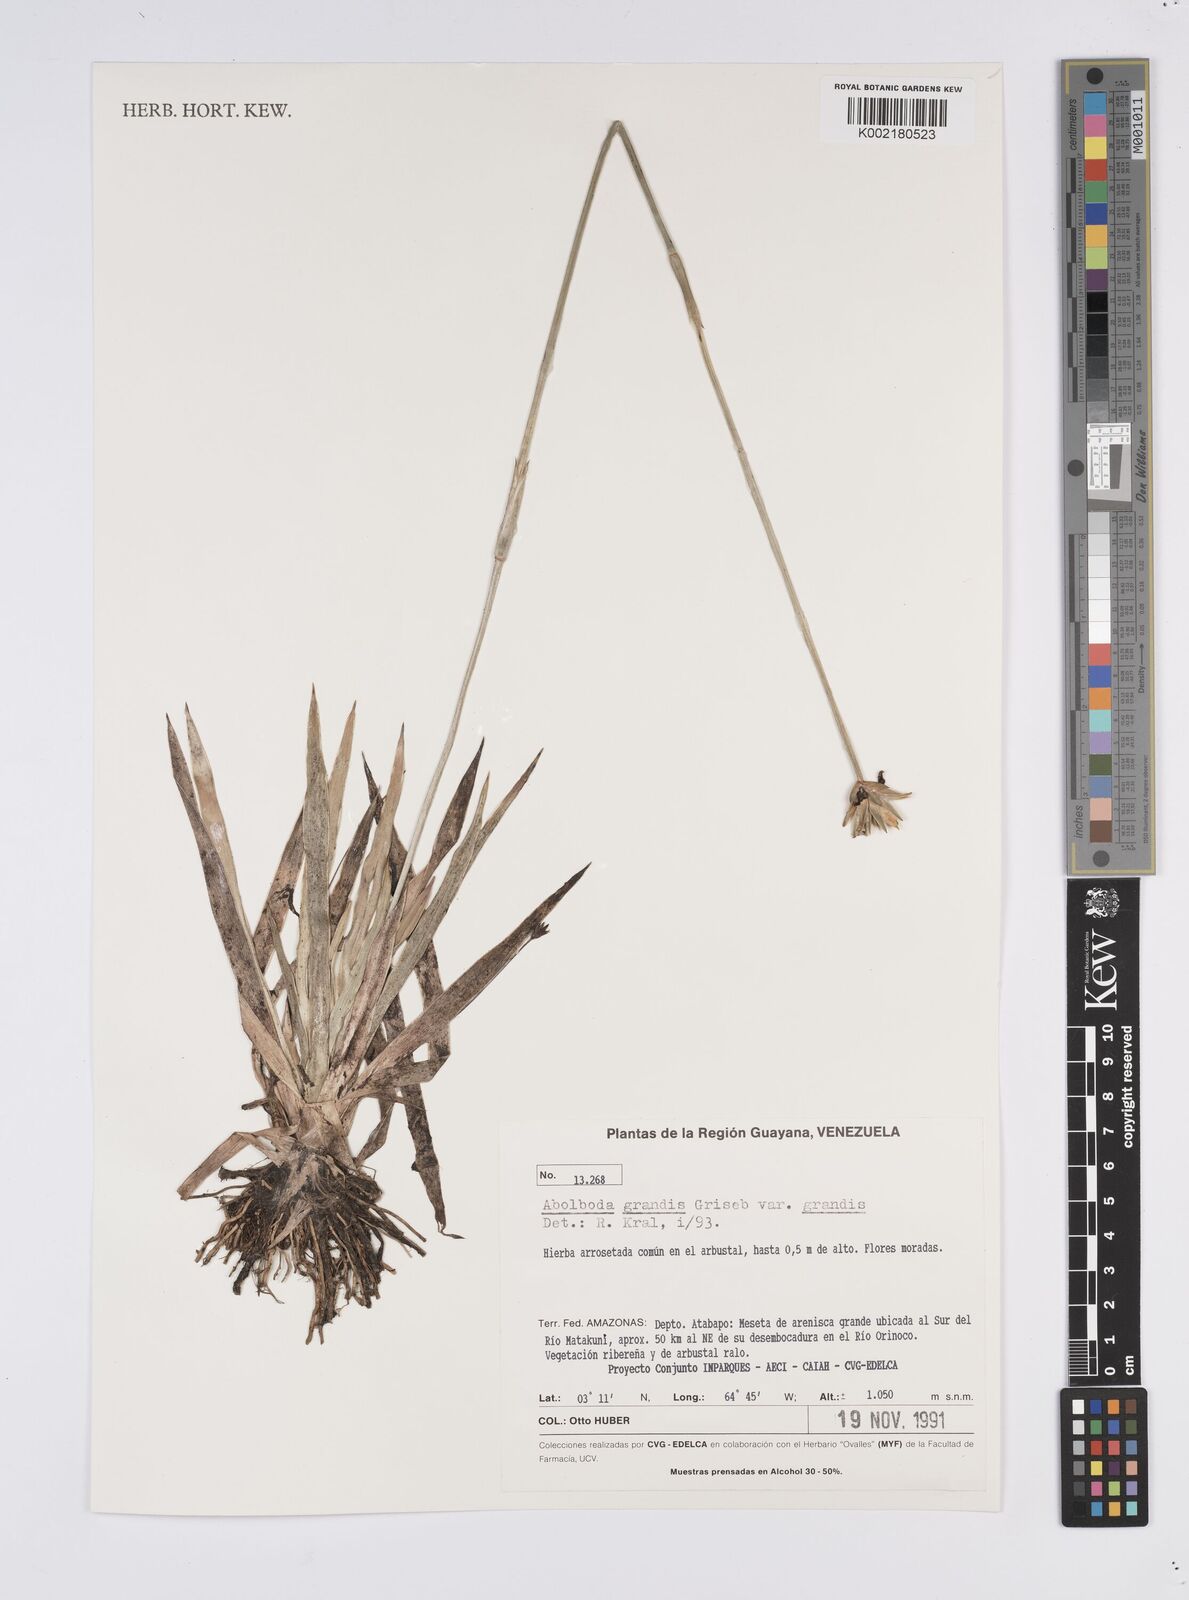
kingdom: Plantae
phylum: Tracheophyta
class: Liliopsida
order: Poales
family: Xyridaceae
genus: Abolboda
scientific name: Abolboda grandis
